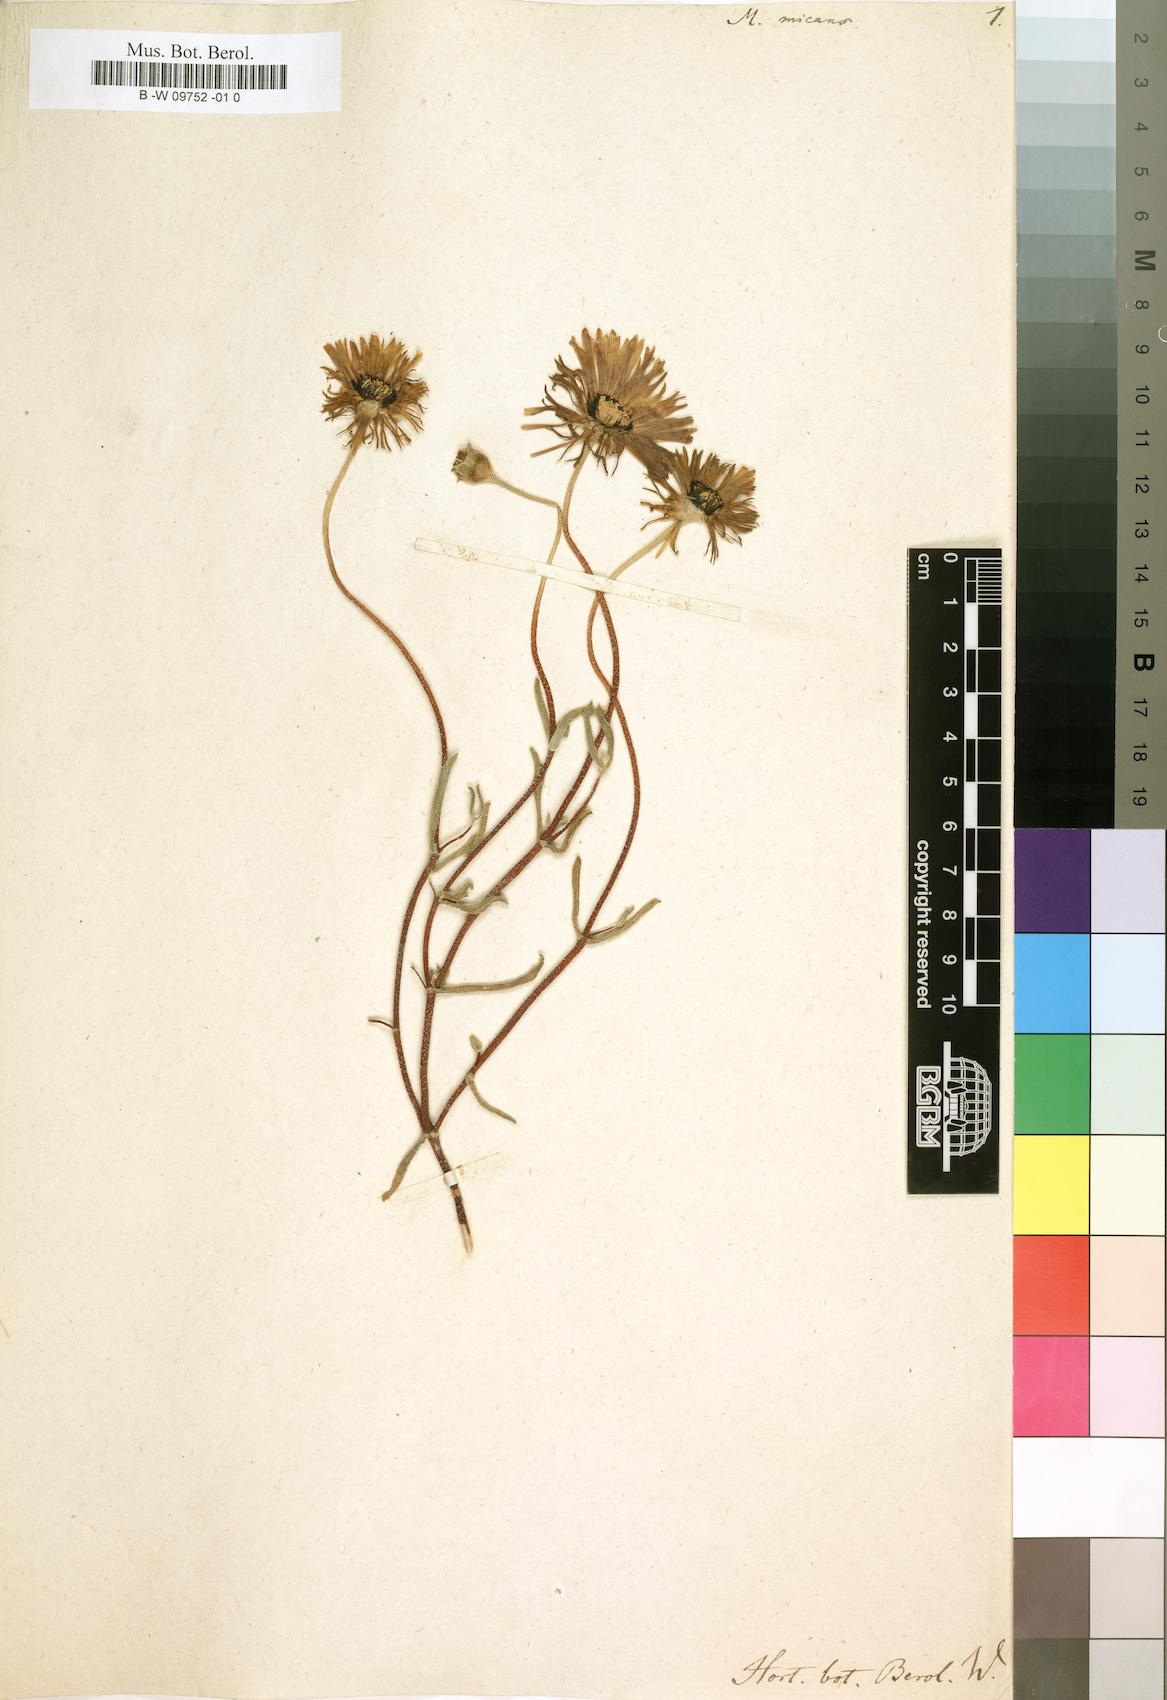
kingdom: Plantae
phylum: Tracheophyta
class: Magnoliopsida
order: Caryophyllales
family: Aizoaceae
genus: Drosanthemum
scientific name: Drosanthemum
